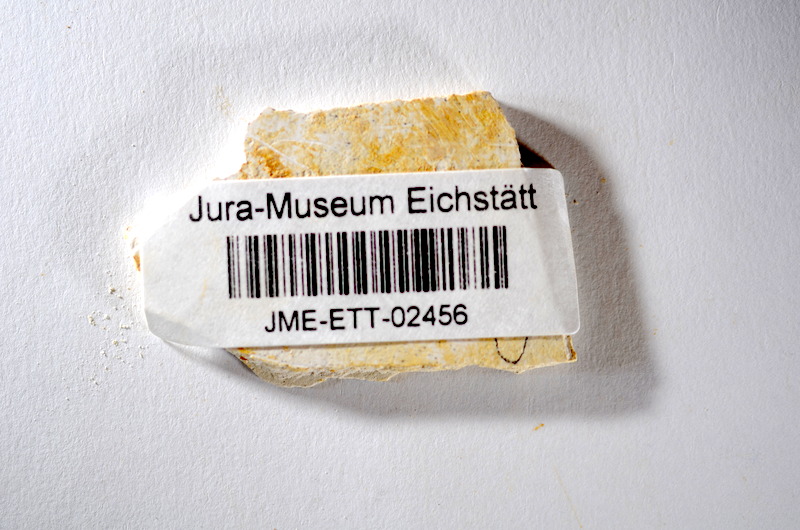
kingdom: Animalia
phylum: Chordata
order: Salmoniformes
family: Orthogonikleithridae
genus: Orthogonikleithrus
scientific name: Orthogonikleithrus hoelli
